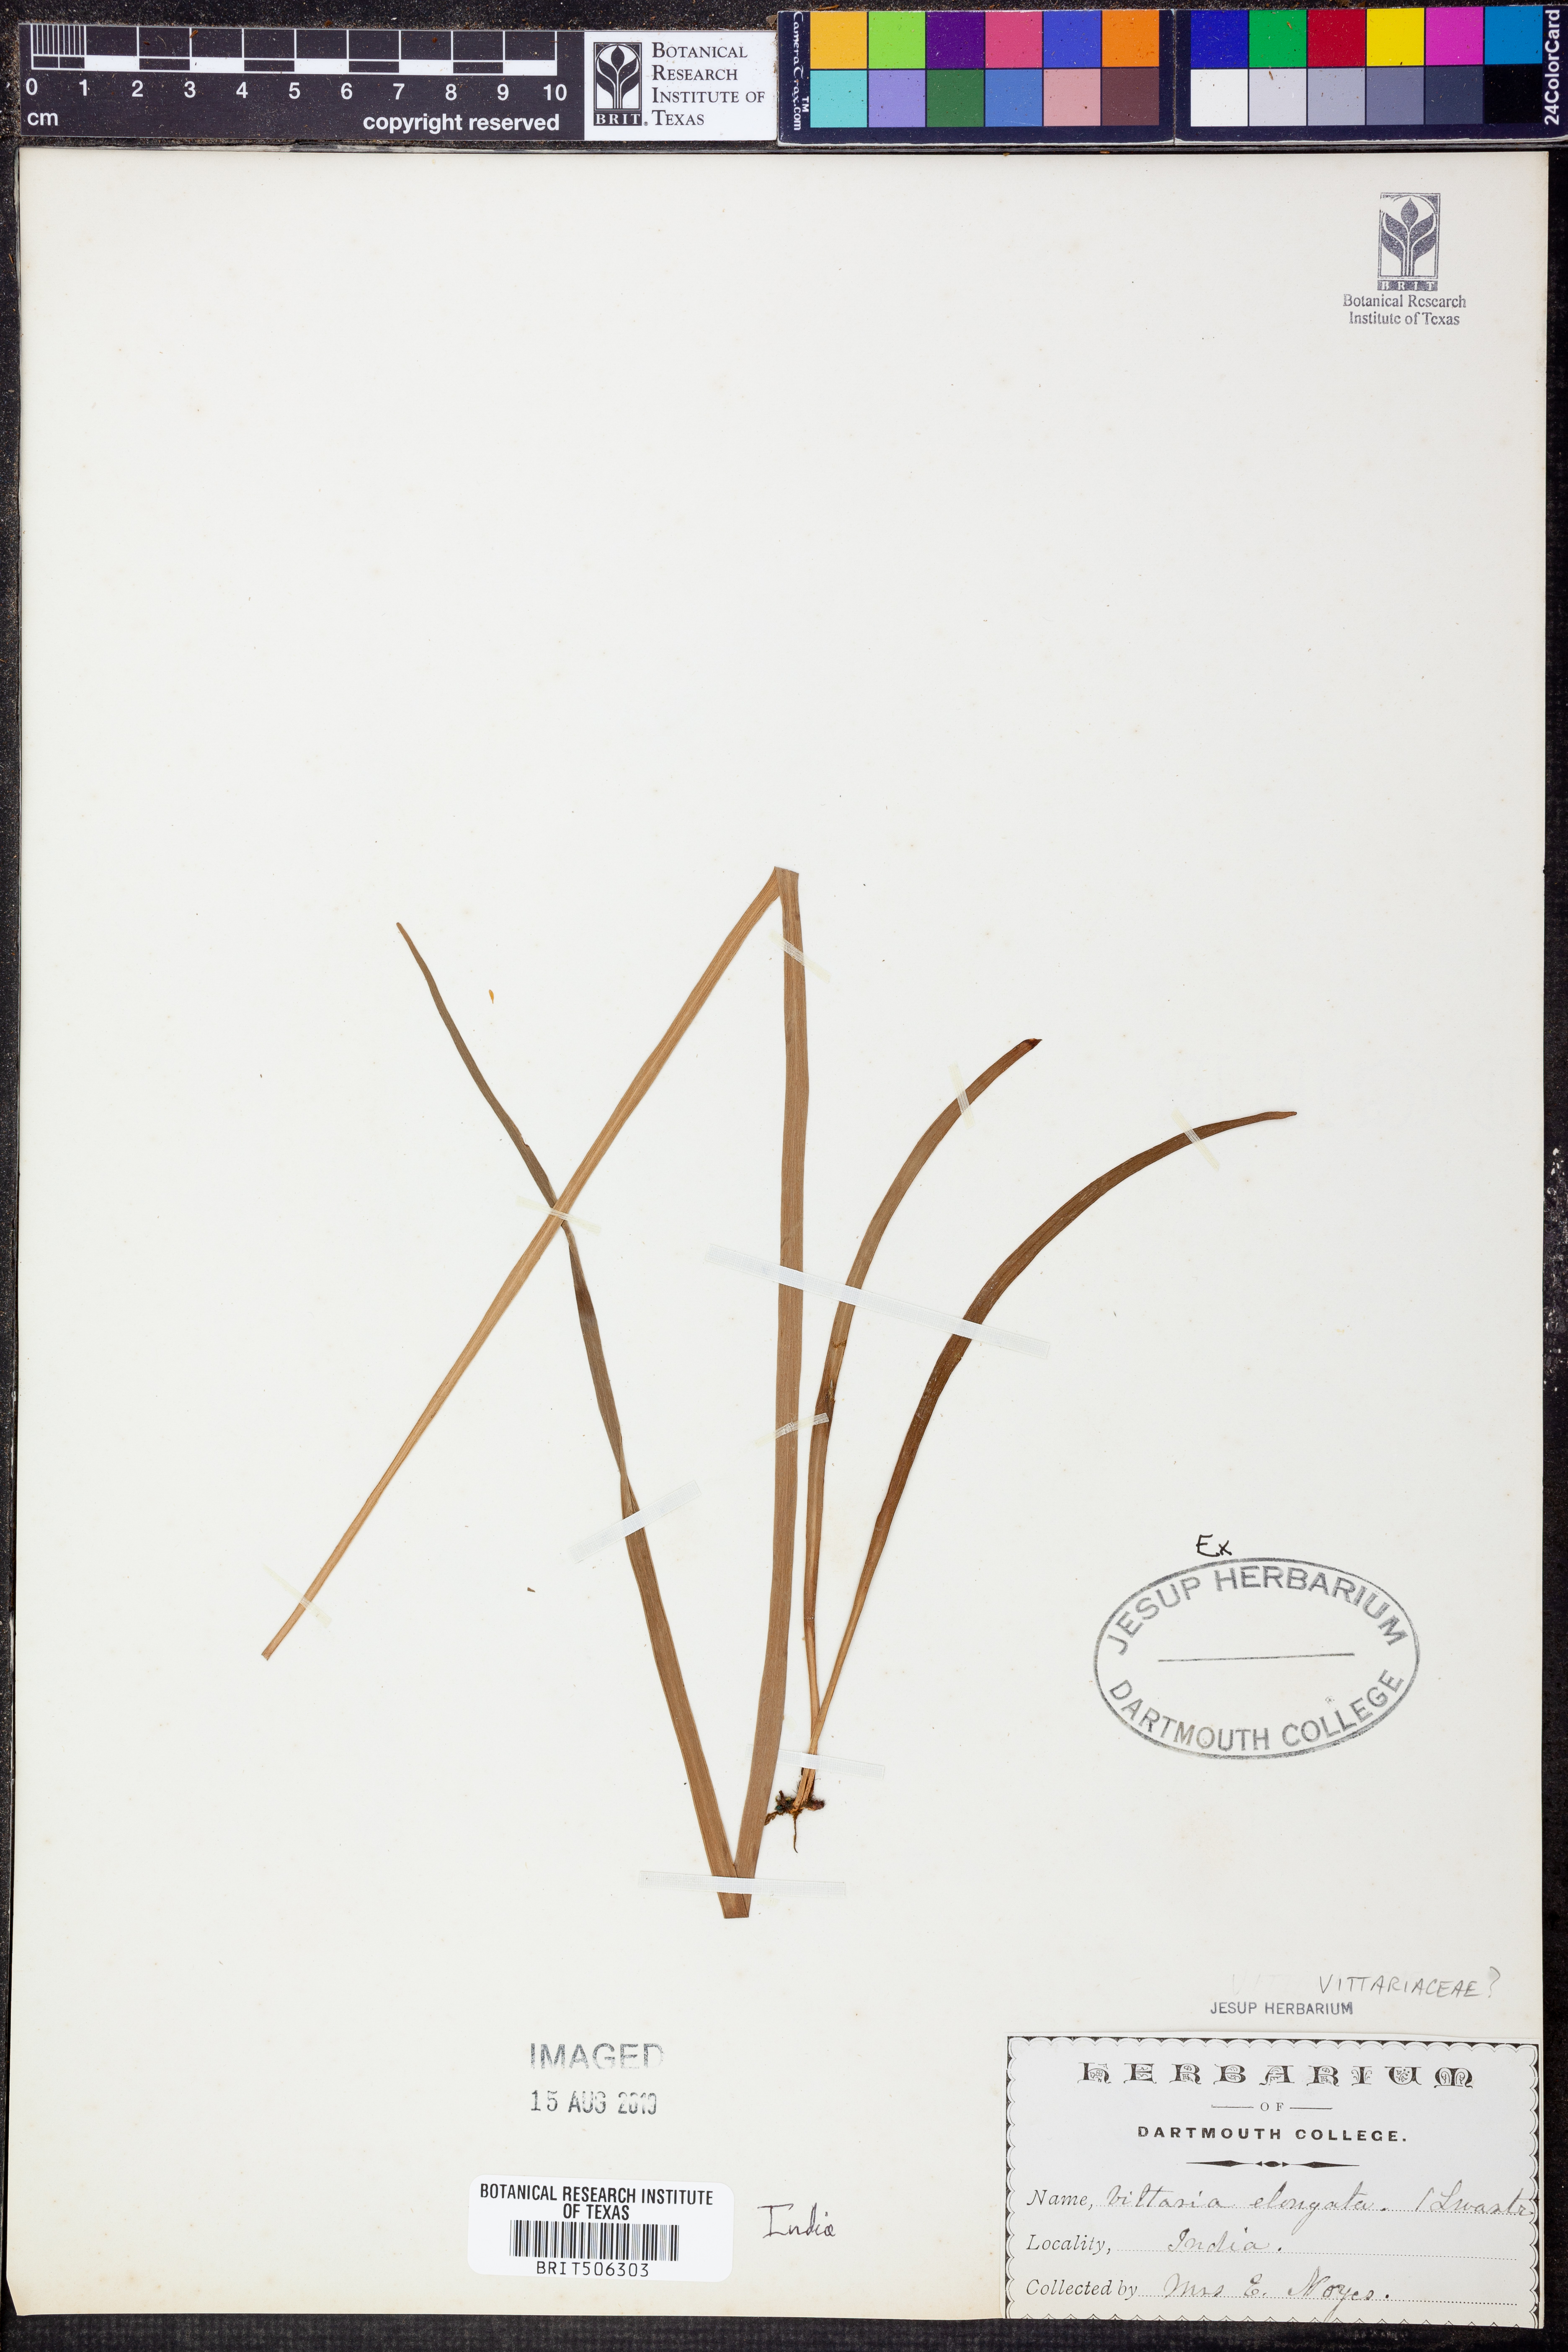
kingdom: Plantae
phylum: Tracheophyta
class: Polypodiopsida
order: Polypodiales
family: Pteridaceae
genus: Haplopteris
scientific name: Haplopteris elongata
